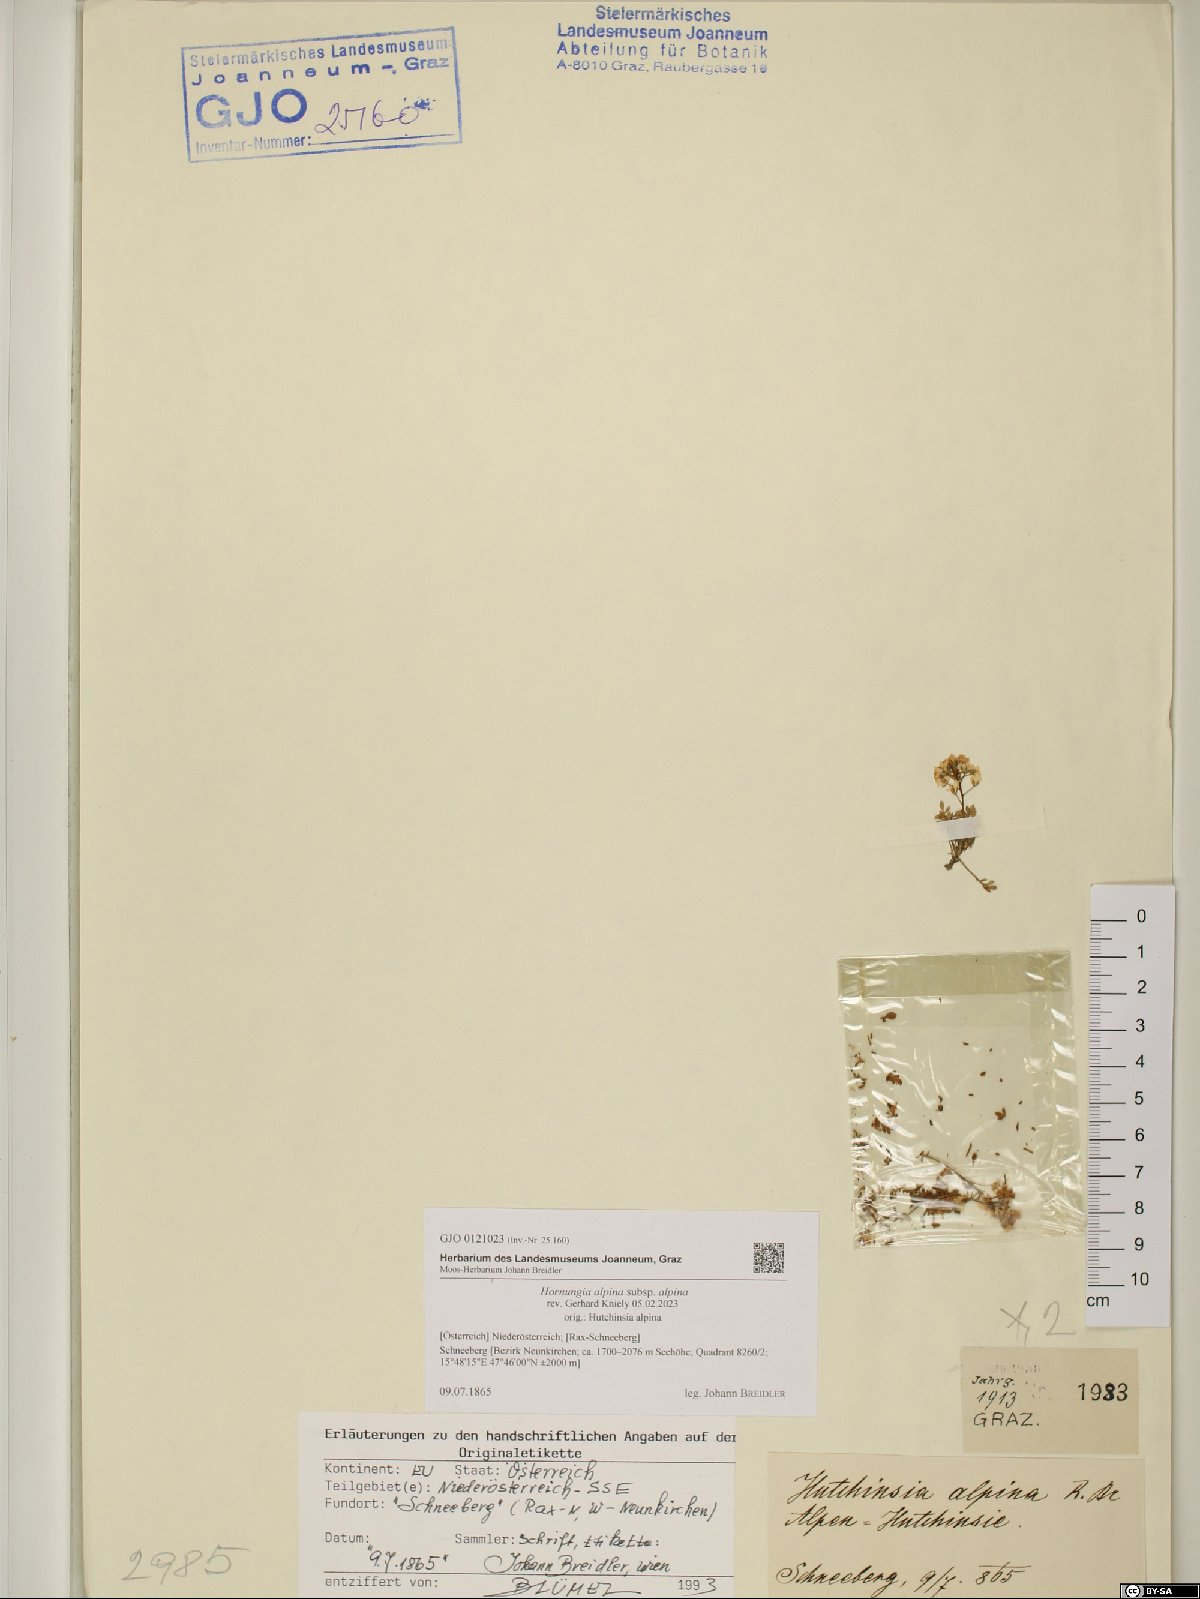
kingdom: Plantae
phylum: Tracheophyta
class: Magnoliopsida
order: Brassicales
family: Brassicaceae
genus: Hornungia
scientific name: Hornungia alpina
